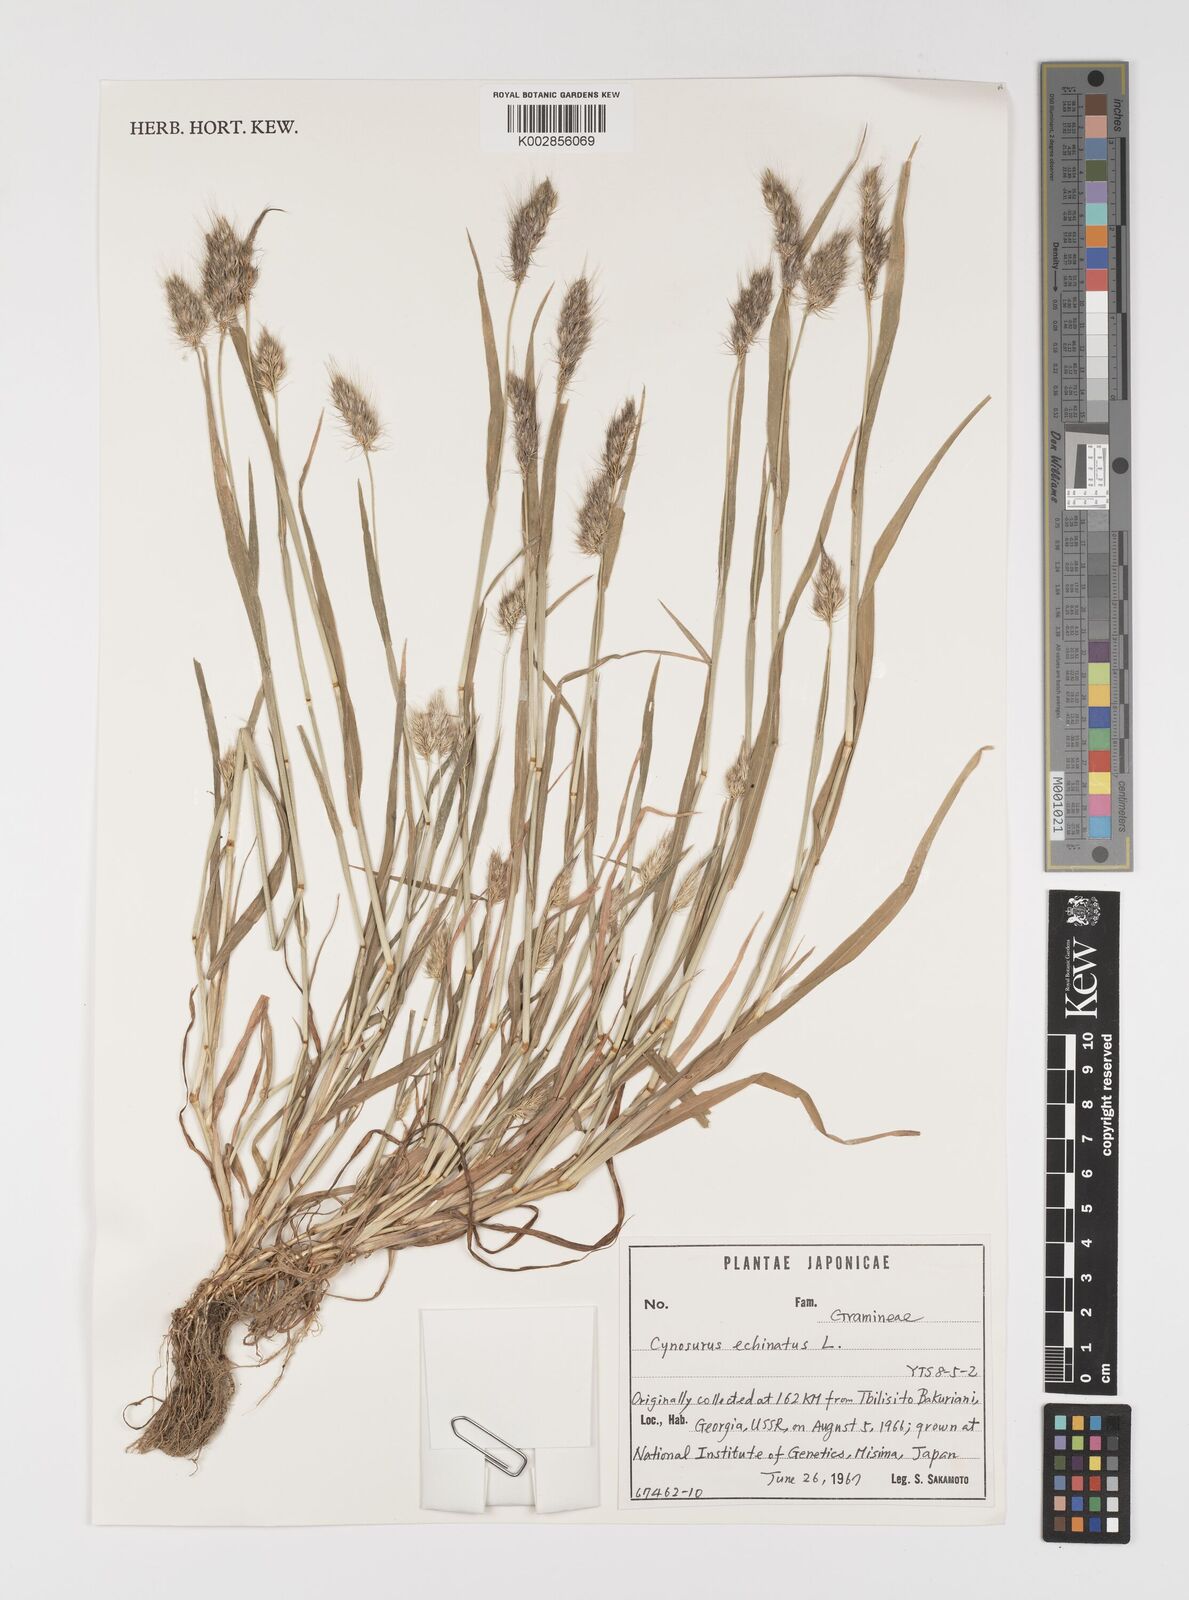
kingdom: Plantae
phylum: Tracheophyta
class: Liliopsida
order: Poales
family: Poaceae
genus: Cynosurus
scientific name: Cynosurus echinatus
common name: Rough dog's-tail
